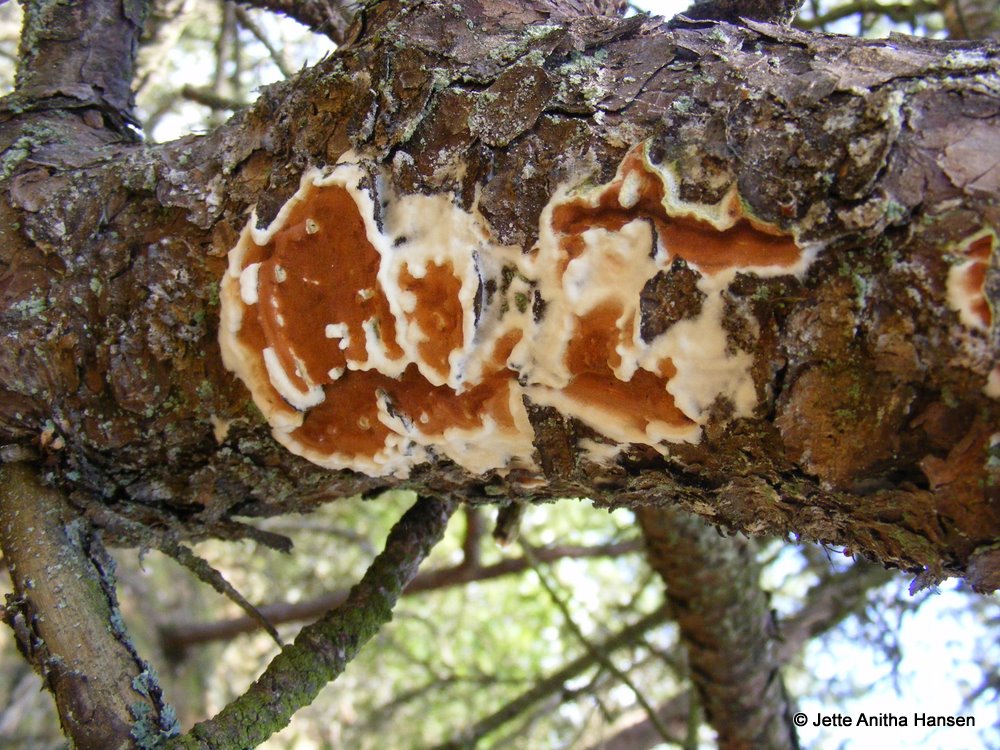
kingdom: Fungi
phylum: Basidiomycota
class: Agaricomycetes
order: Polyporales
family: Irpicaceae
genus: Meruliopsis
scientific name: Meruliopsis taxicola
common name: purpurbrun foldporesvamp
